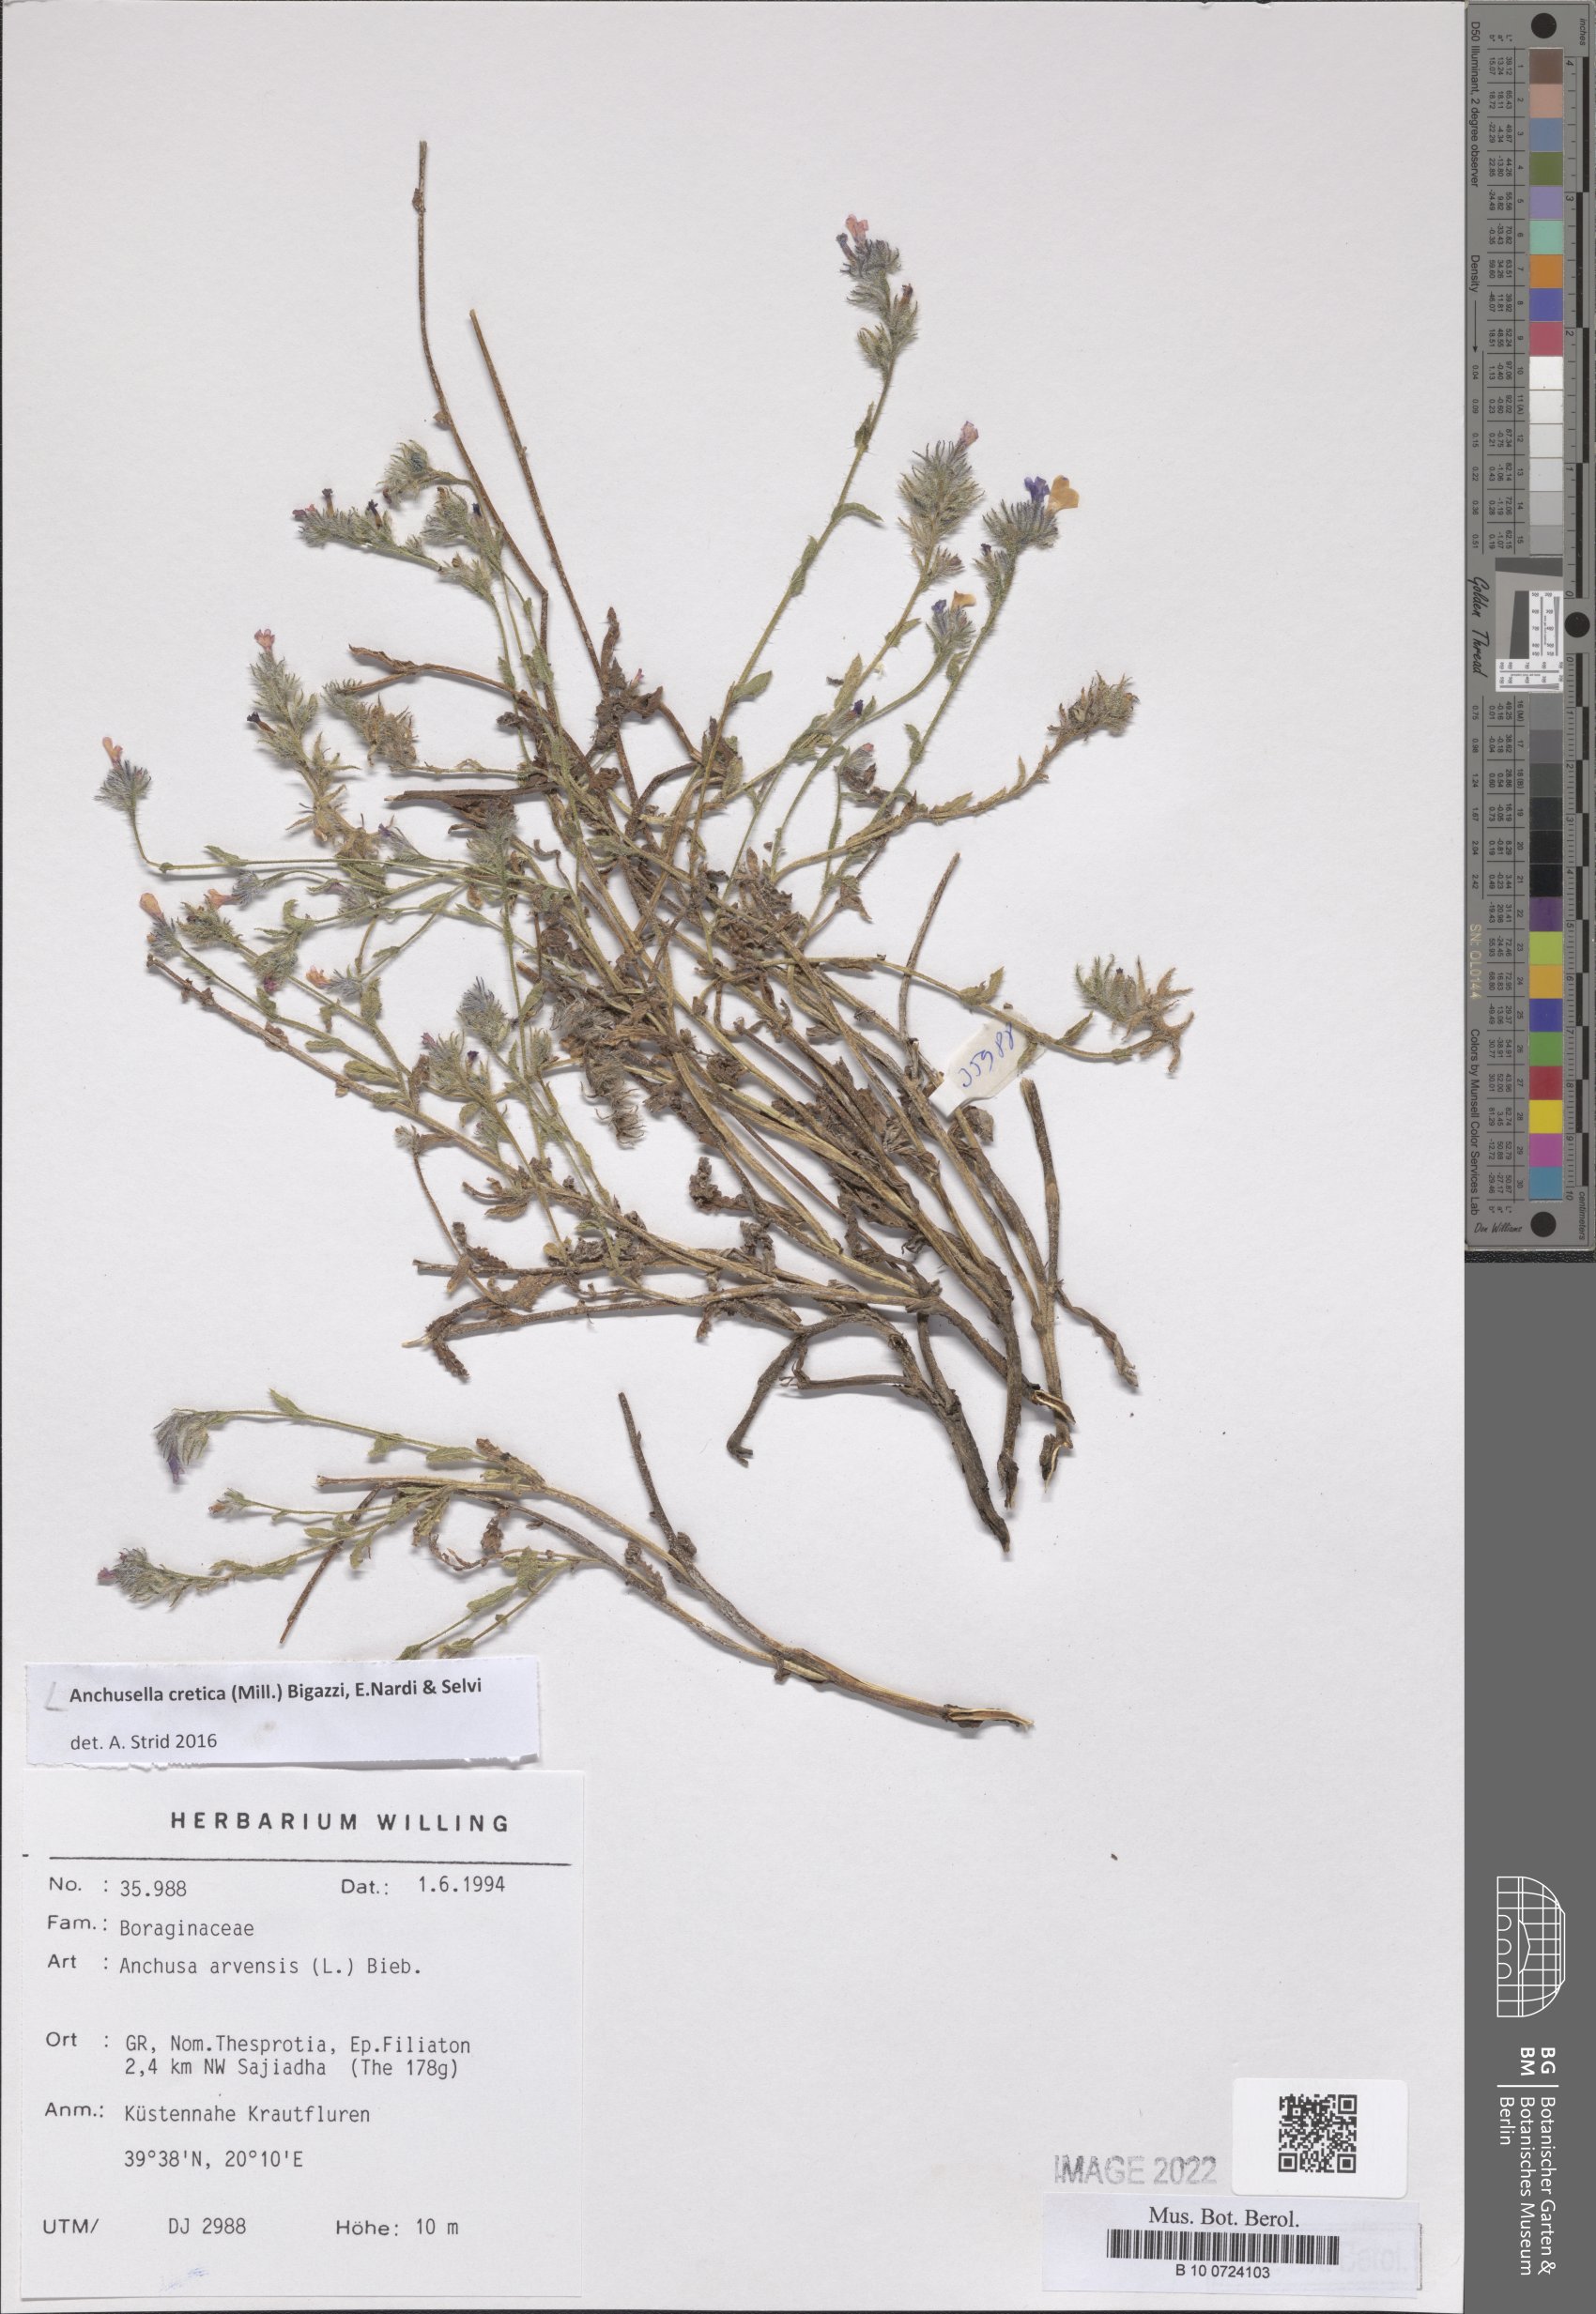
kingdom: Plantae
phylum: Tracheophyta
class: Magnoliopsida
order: Boraginales
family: Boraginaceae
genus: Anchusella
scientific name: Anchusella cretica
